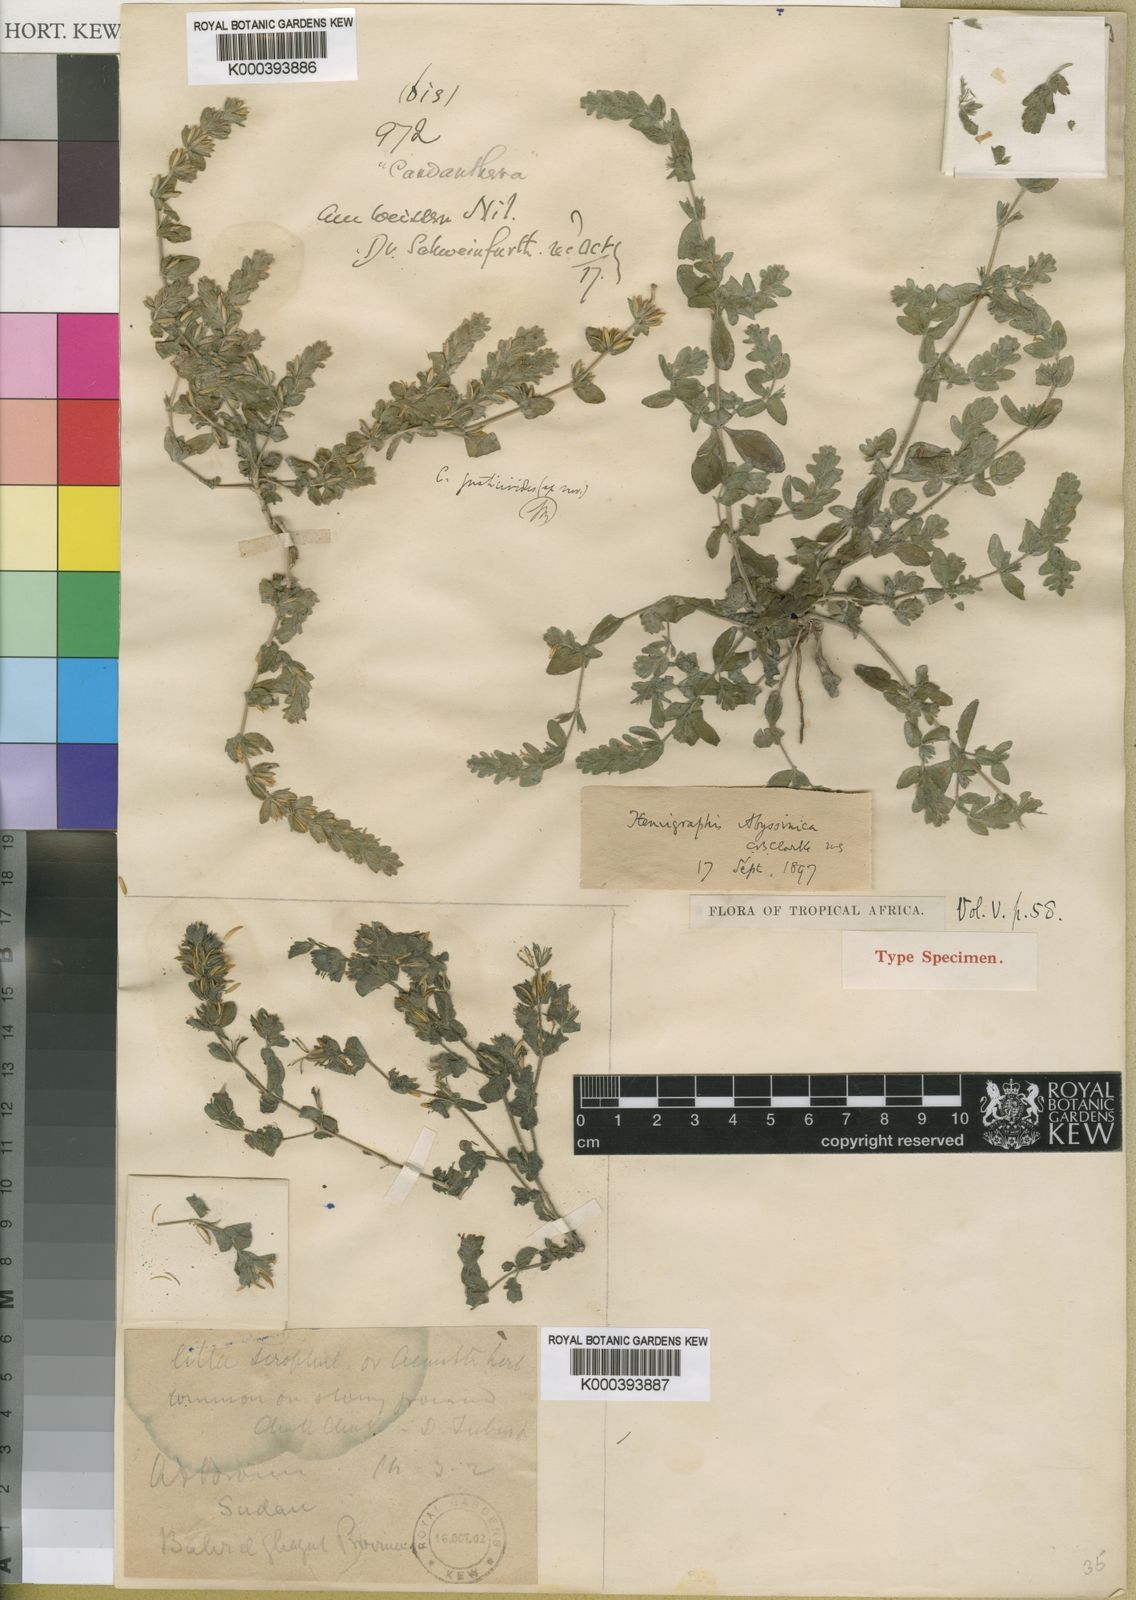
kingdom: Plantae
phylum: Tracheophyta
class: Magnoliopsida
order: Lamiales
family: Acanthaceae
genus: Hygrophila
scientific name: Hygrophila abyssinica
